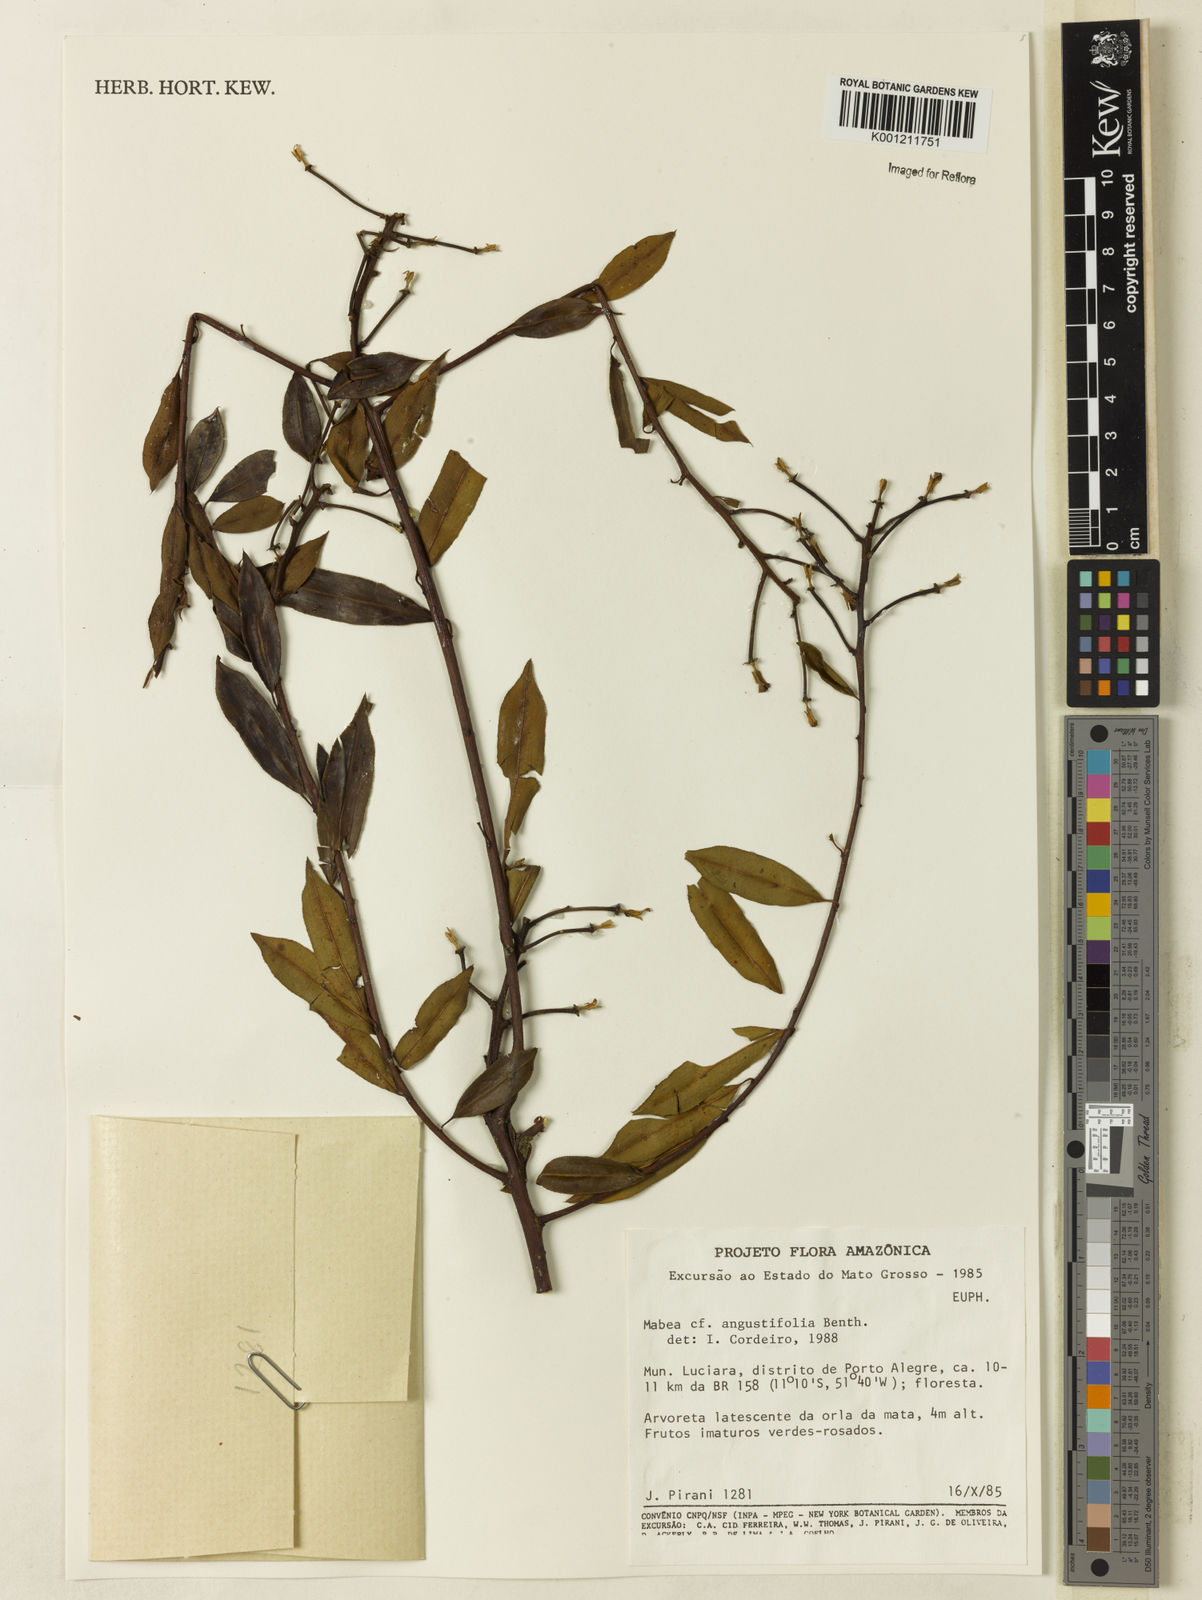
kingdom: Plantae
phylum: Tracheophyta
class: Magnoliopsida
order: Malpighiales
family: Euphorbiaceae
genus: Mabea
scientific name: Mabea angustifolia
